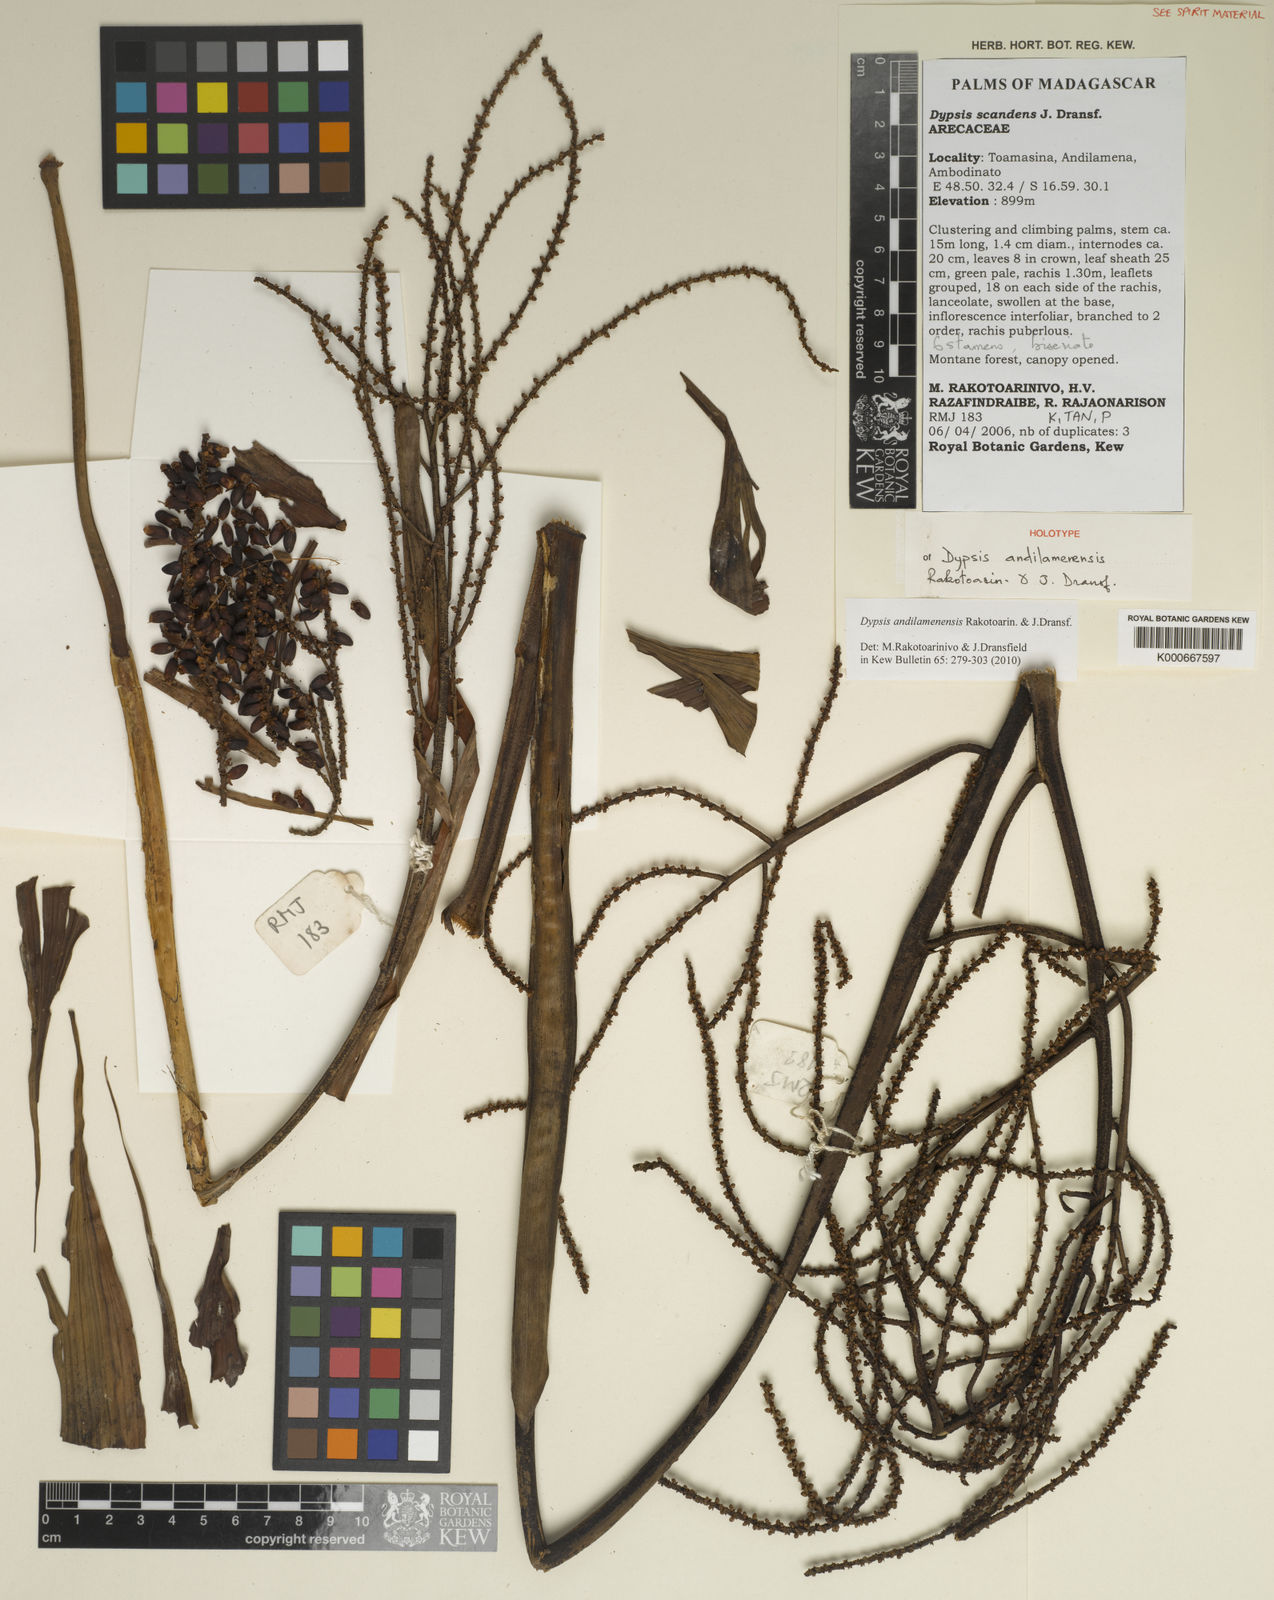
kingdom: Plantae
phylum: Tracheophyta
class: Liliopsida
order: Arecales
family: Arecaceae
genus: Dypsis
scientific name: Dypsis andilamenensis
